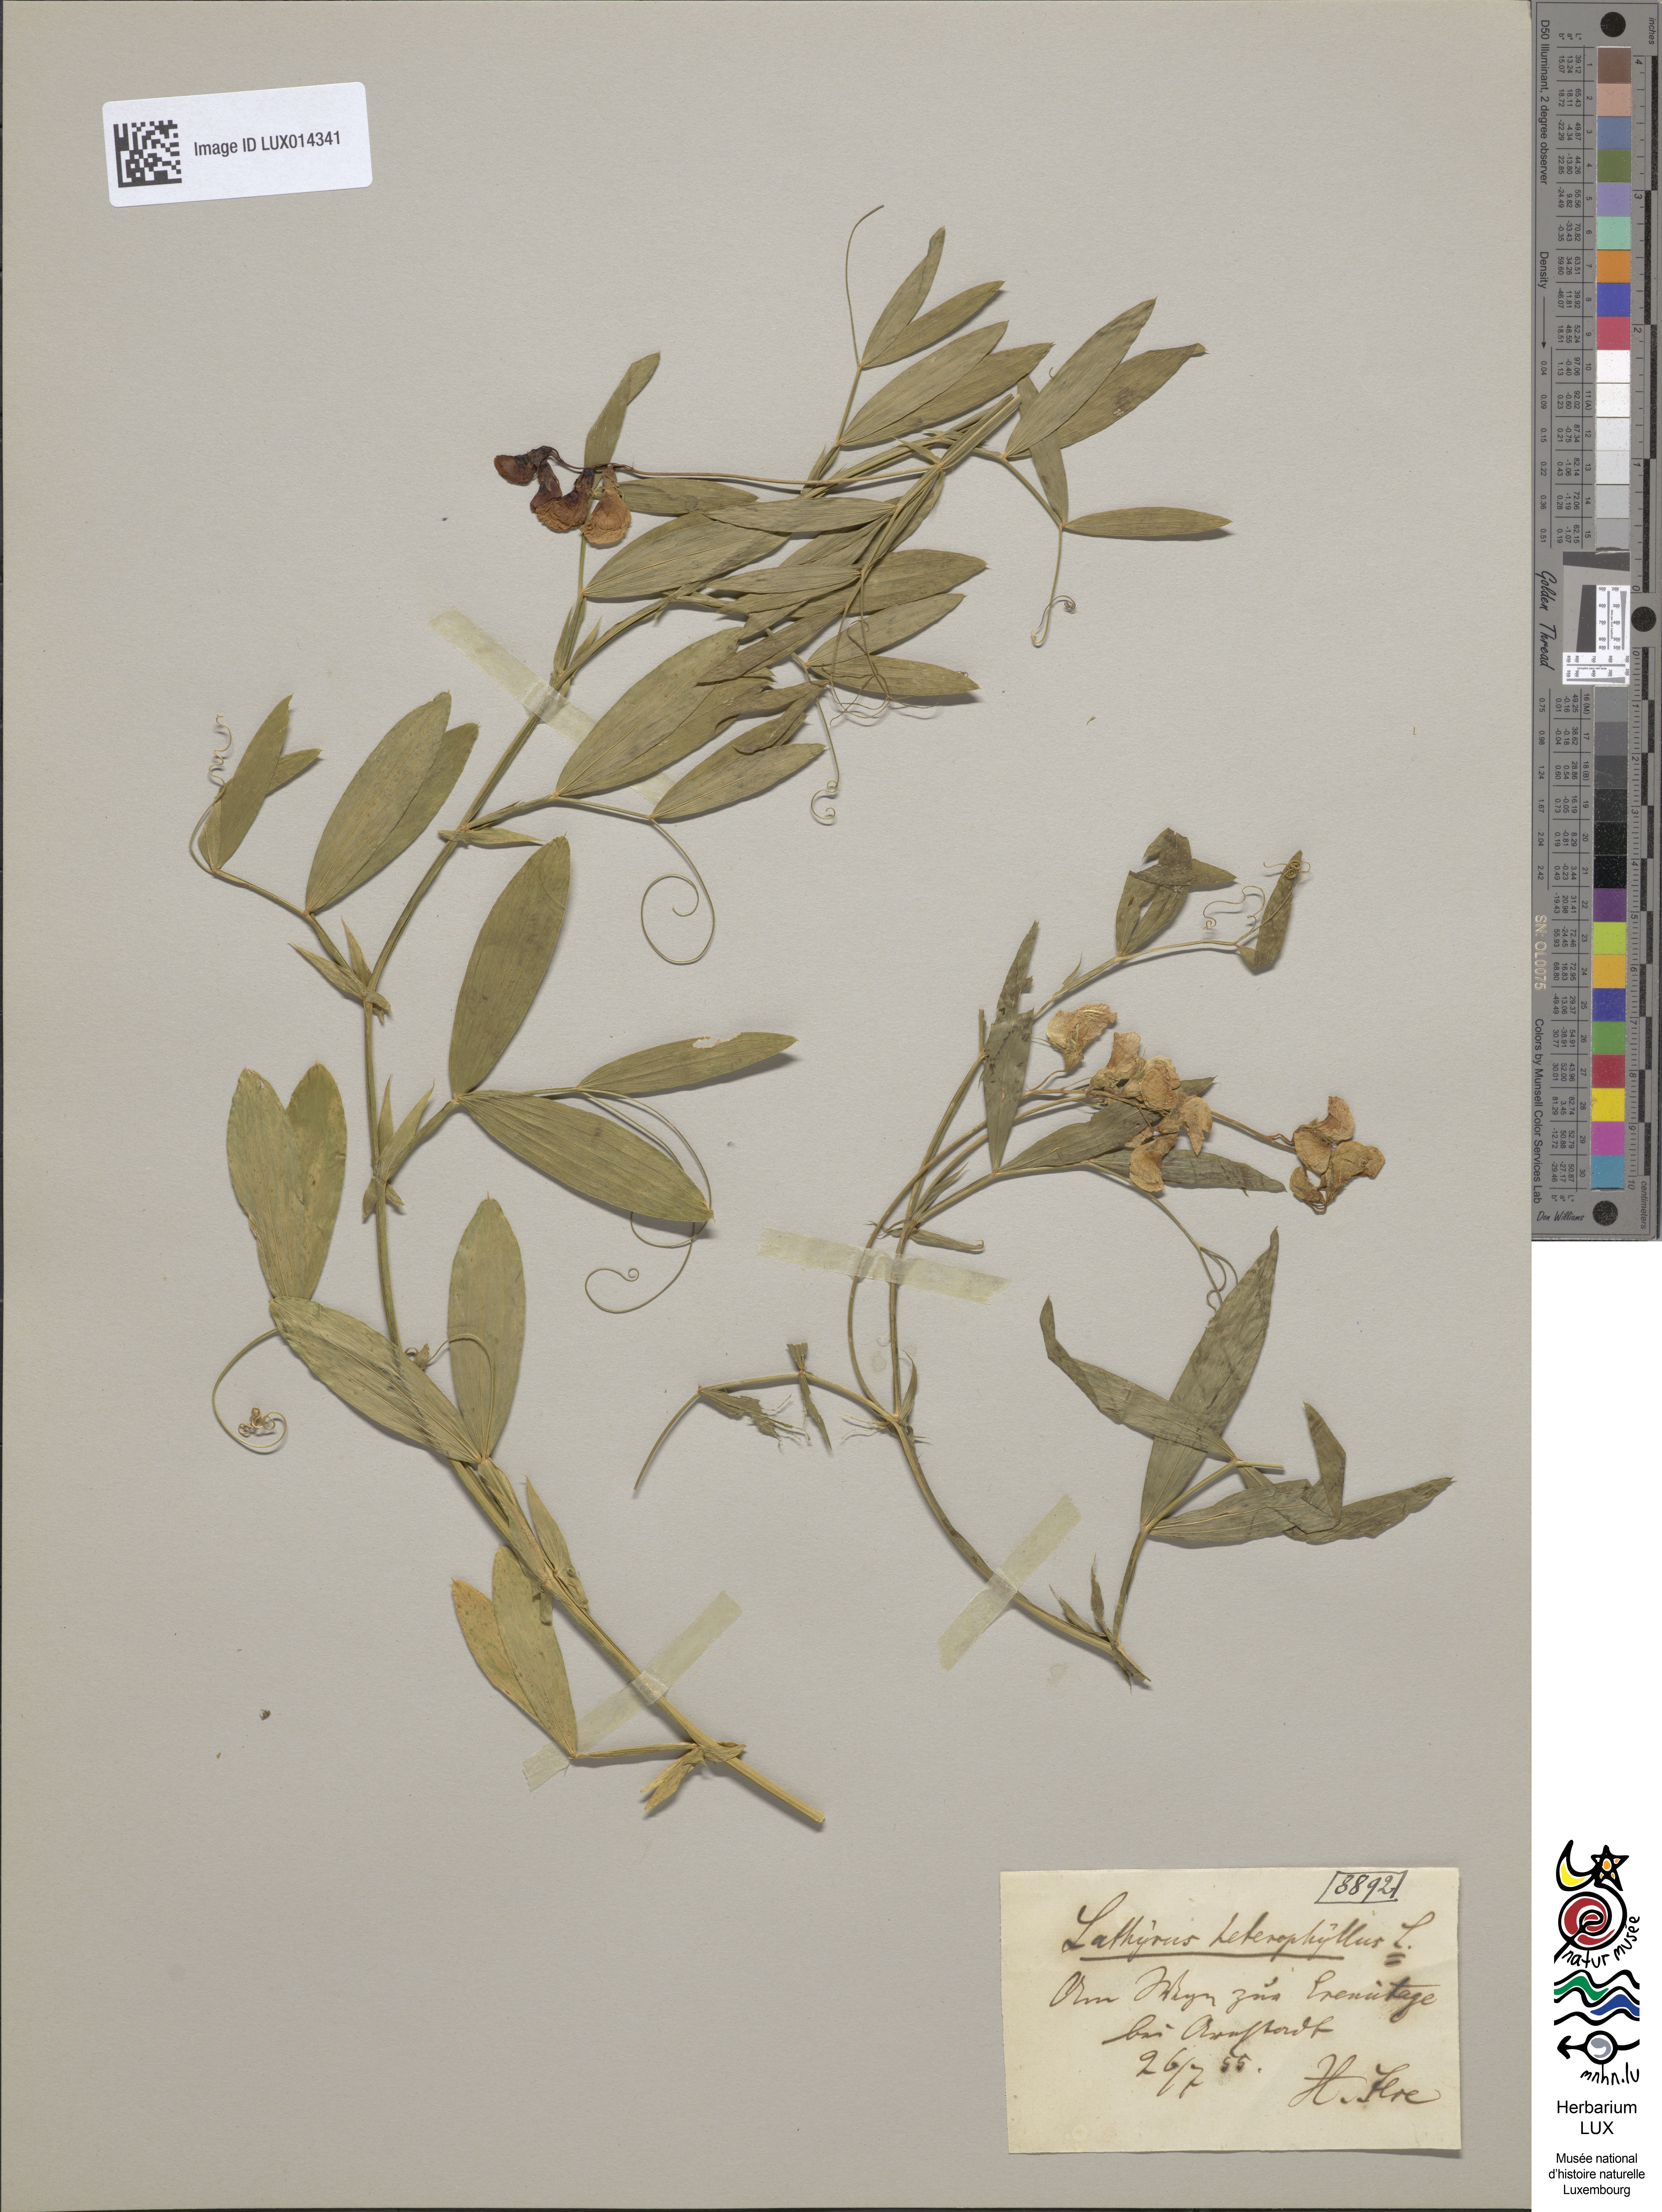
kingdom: Plantae
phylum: Tracheophyta
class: Magnoliopsida
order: Fabales
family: Fabaceae
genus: Lathyrus
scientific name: Lathyrus heterophyllus
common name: Norfolk everlasting-pea
